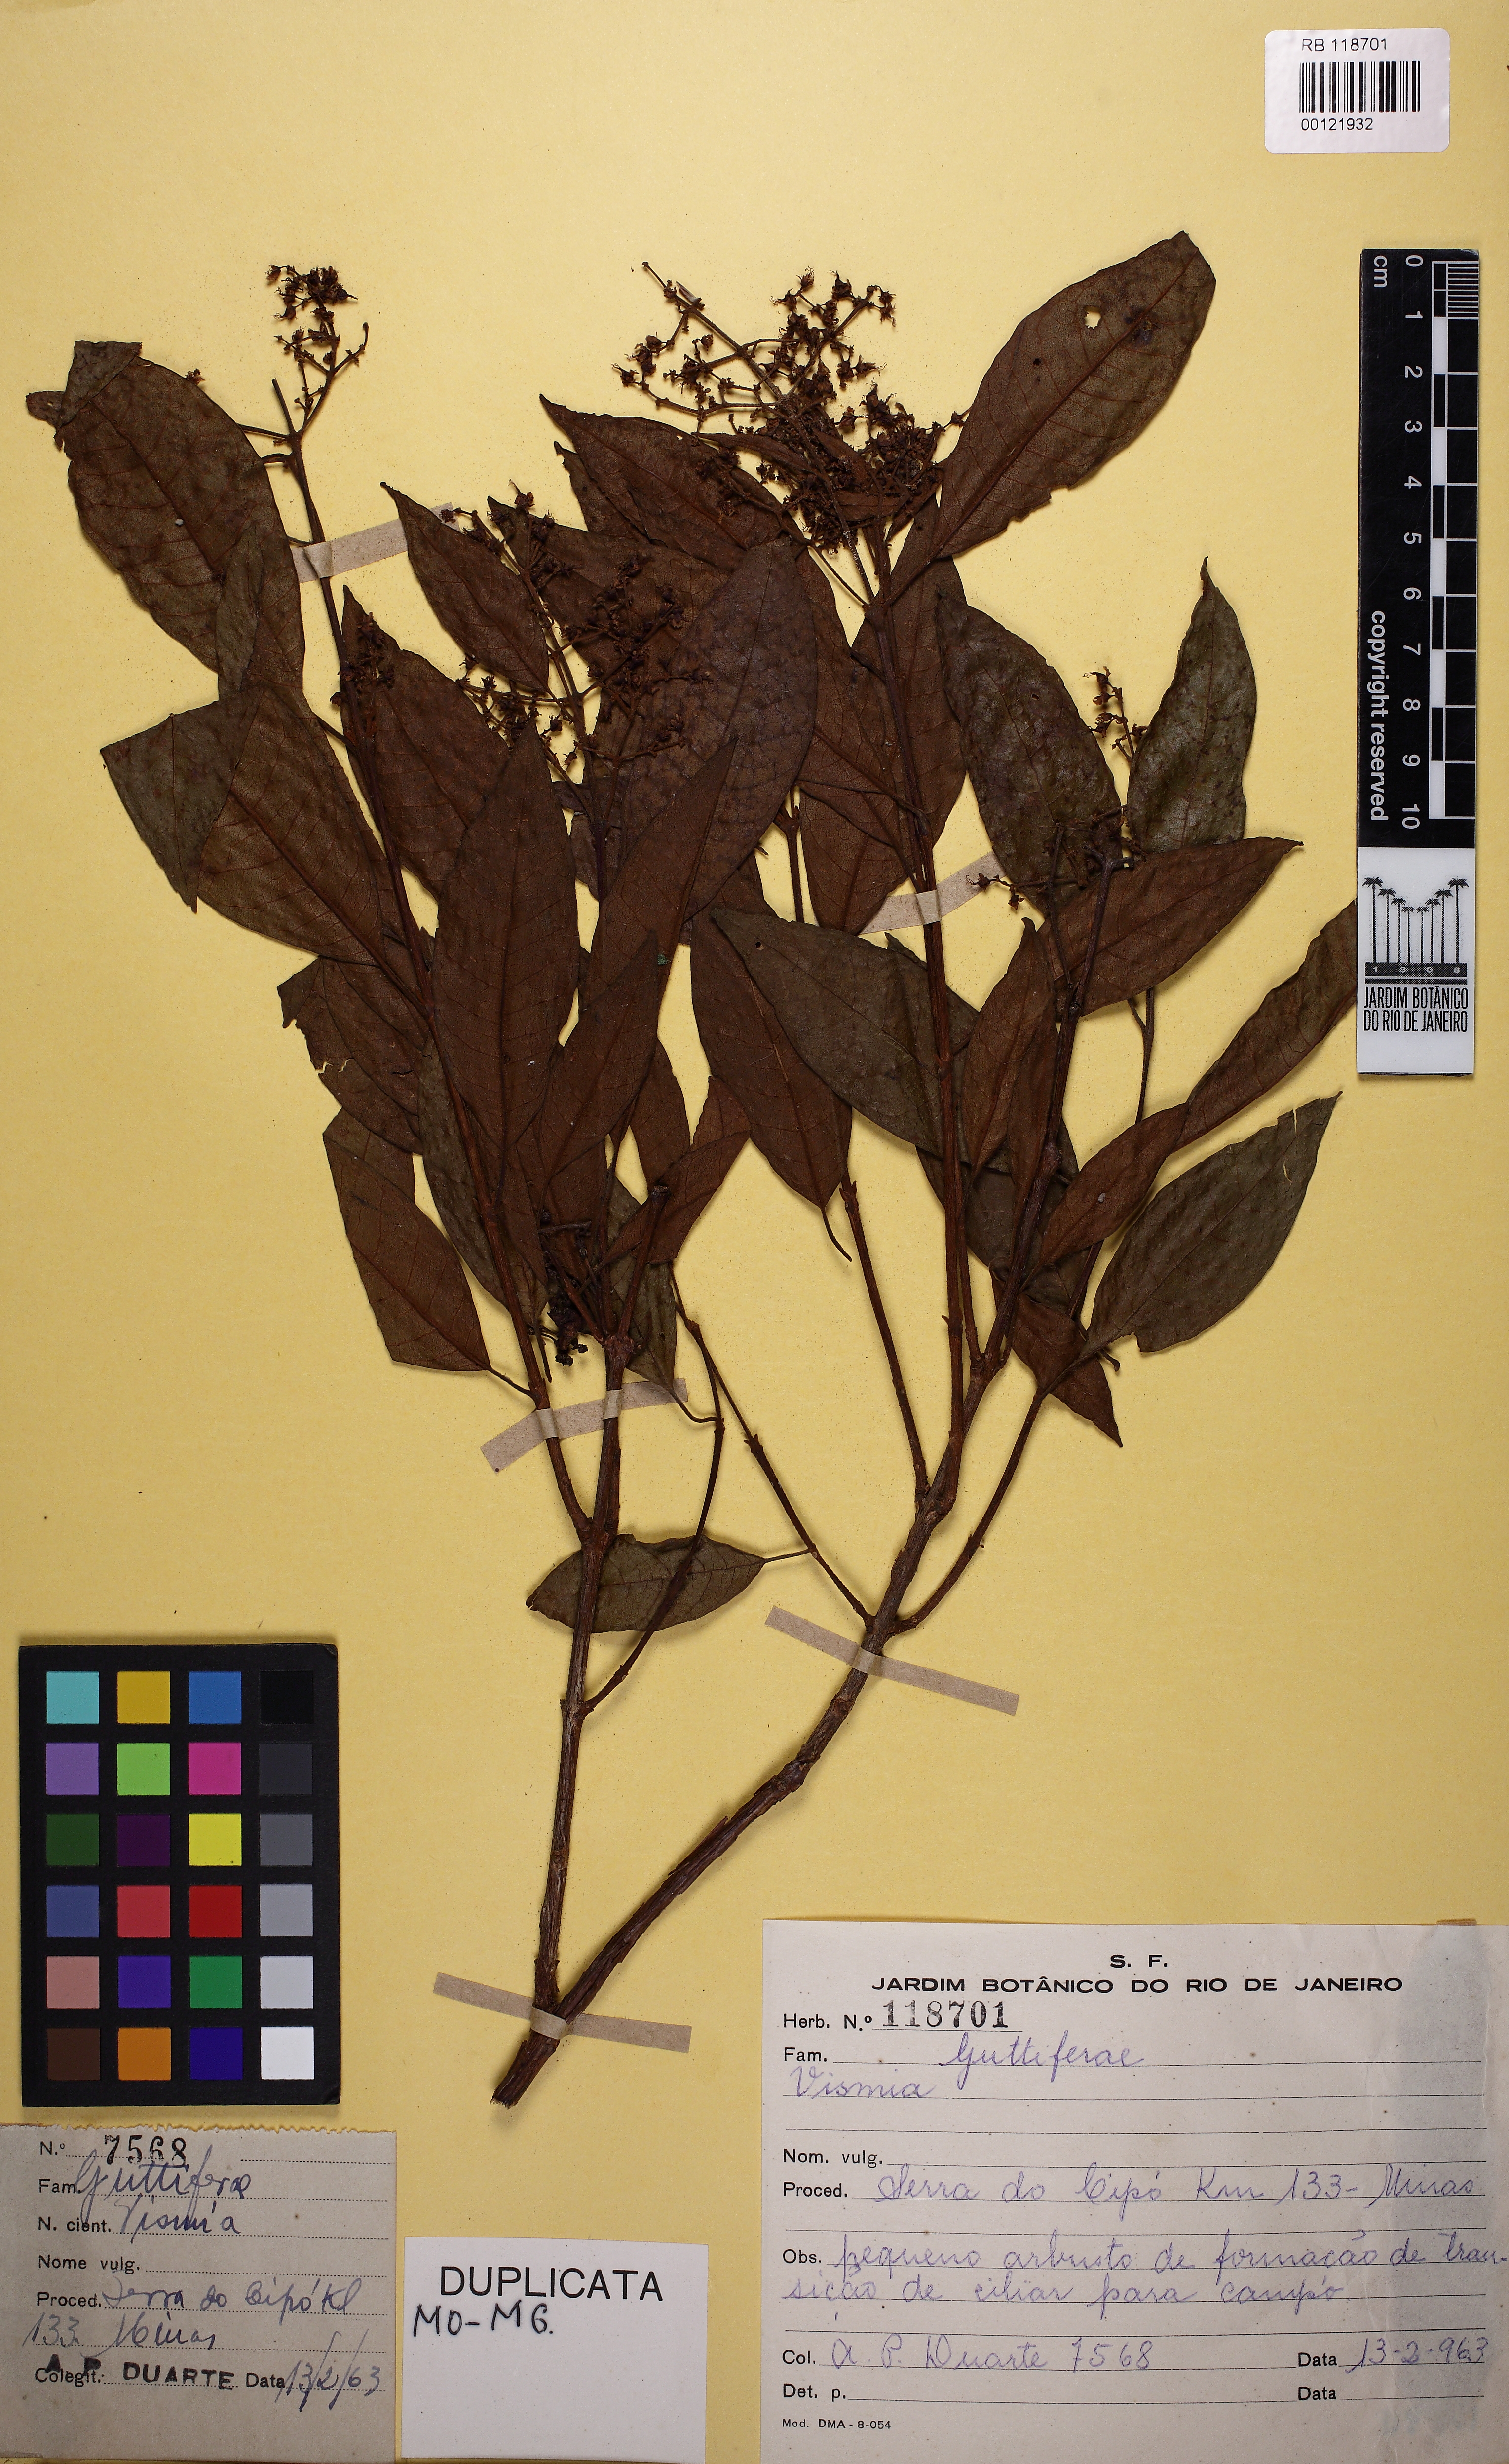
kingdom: Plantae
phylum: Tracheophyta
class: Magnoliopsida
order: Malpighiales
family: Hypericaceae
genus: Vismia
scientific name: Vismia micrantha
